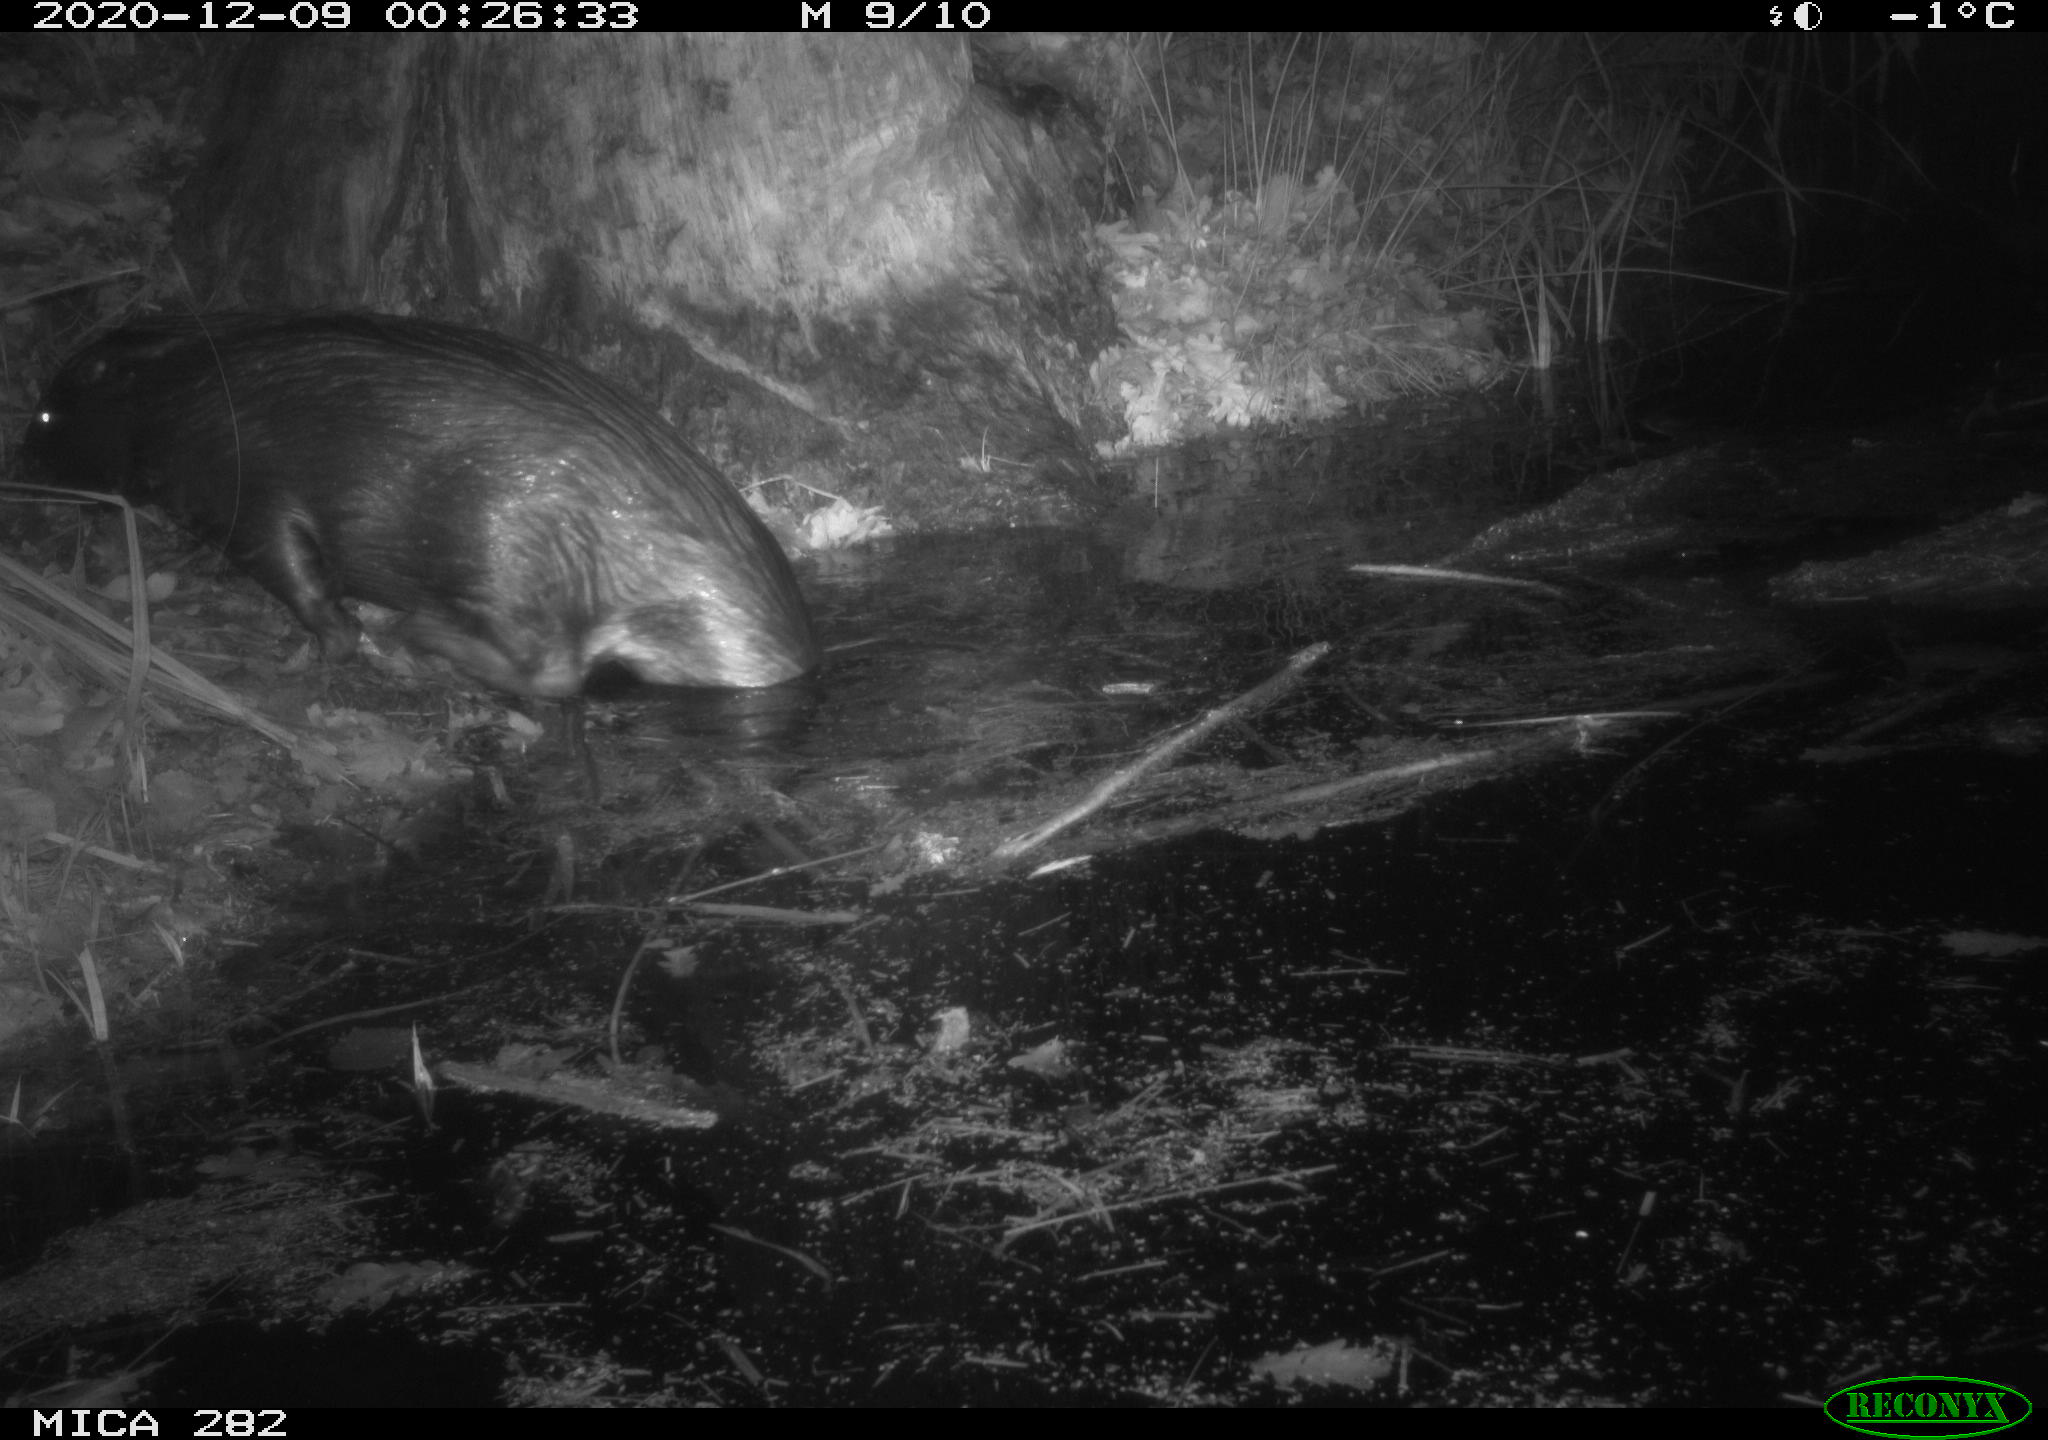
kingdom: Animalia
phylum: Chordata
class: Mammalia
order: Rodentia
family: Castoridae
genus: Castor
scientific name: Castor fiber
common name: Eurasian beaver
